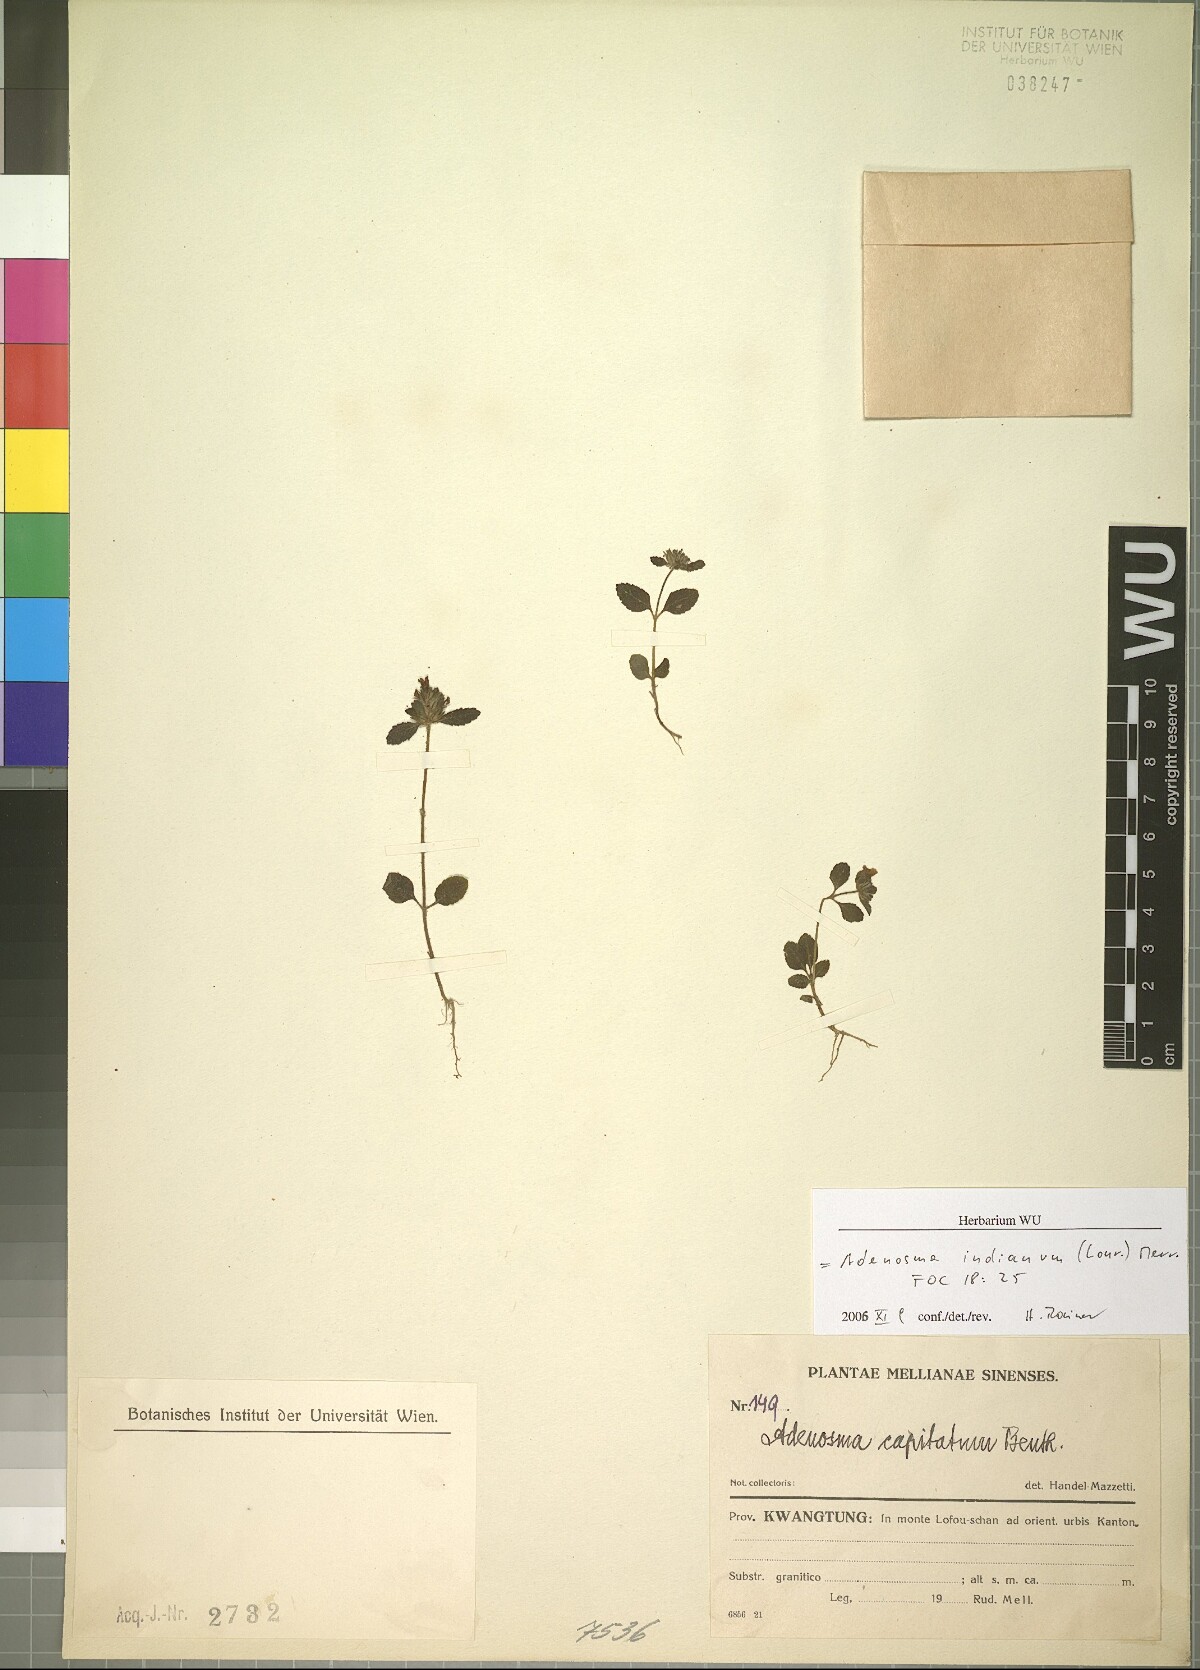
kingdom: Plantae
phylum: Tracheophyta
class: Magnoliopsida
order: Lamiales
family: Plantaginaceae
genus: Adenosma
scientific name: Adenosma indiana
